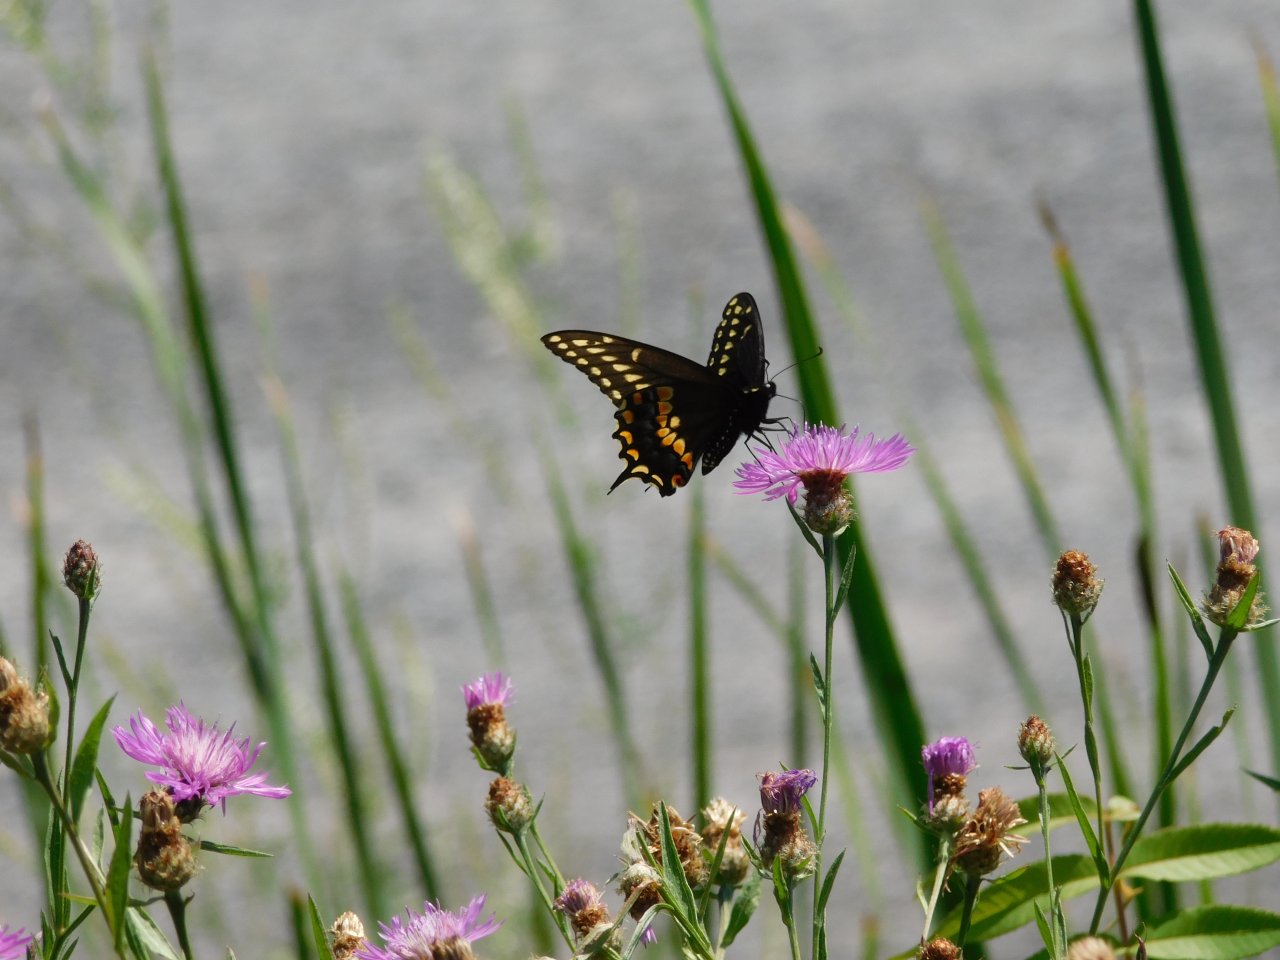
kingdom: Animalia
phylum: Arthropoda
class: Insecta
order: Lepidoptera
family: Papilionidae
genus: Papilio
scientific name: Papilio polyxenes
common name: Black Swallowtail
